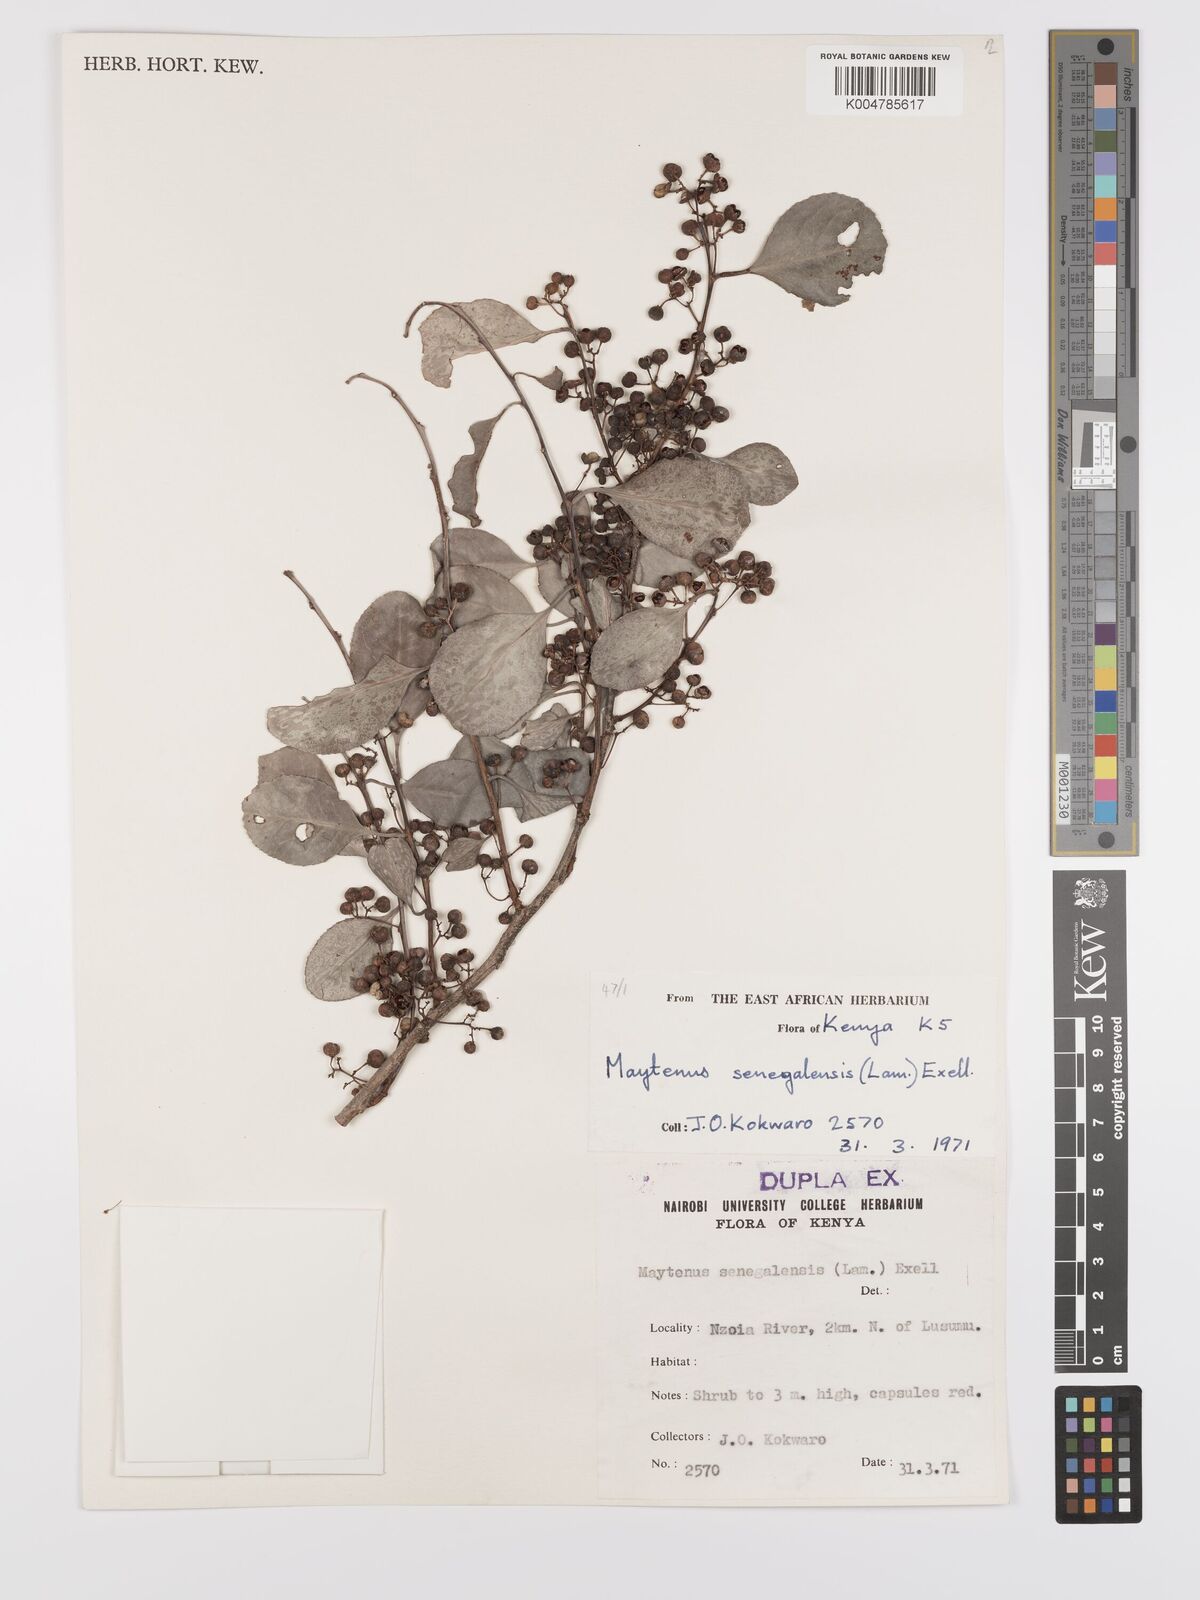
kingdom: Plantae
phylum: Tracheophyta
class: Magnoliopsida
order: Celastrales
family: Celastraceae
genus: Gymnosporia
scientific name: Gymnosporia senegalensis
